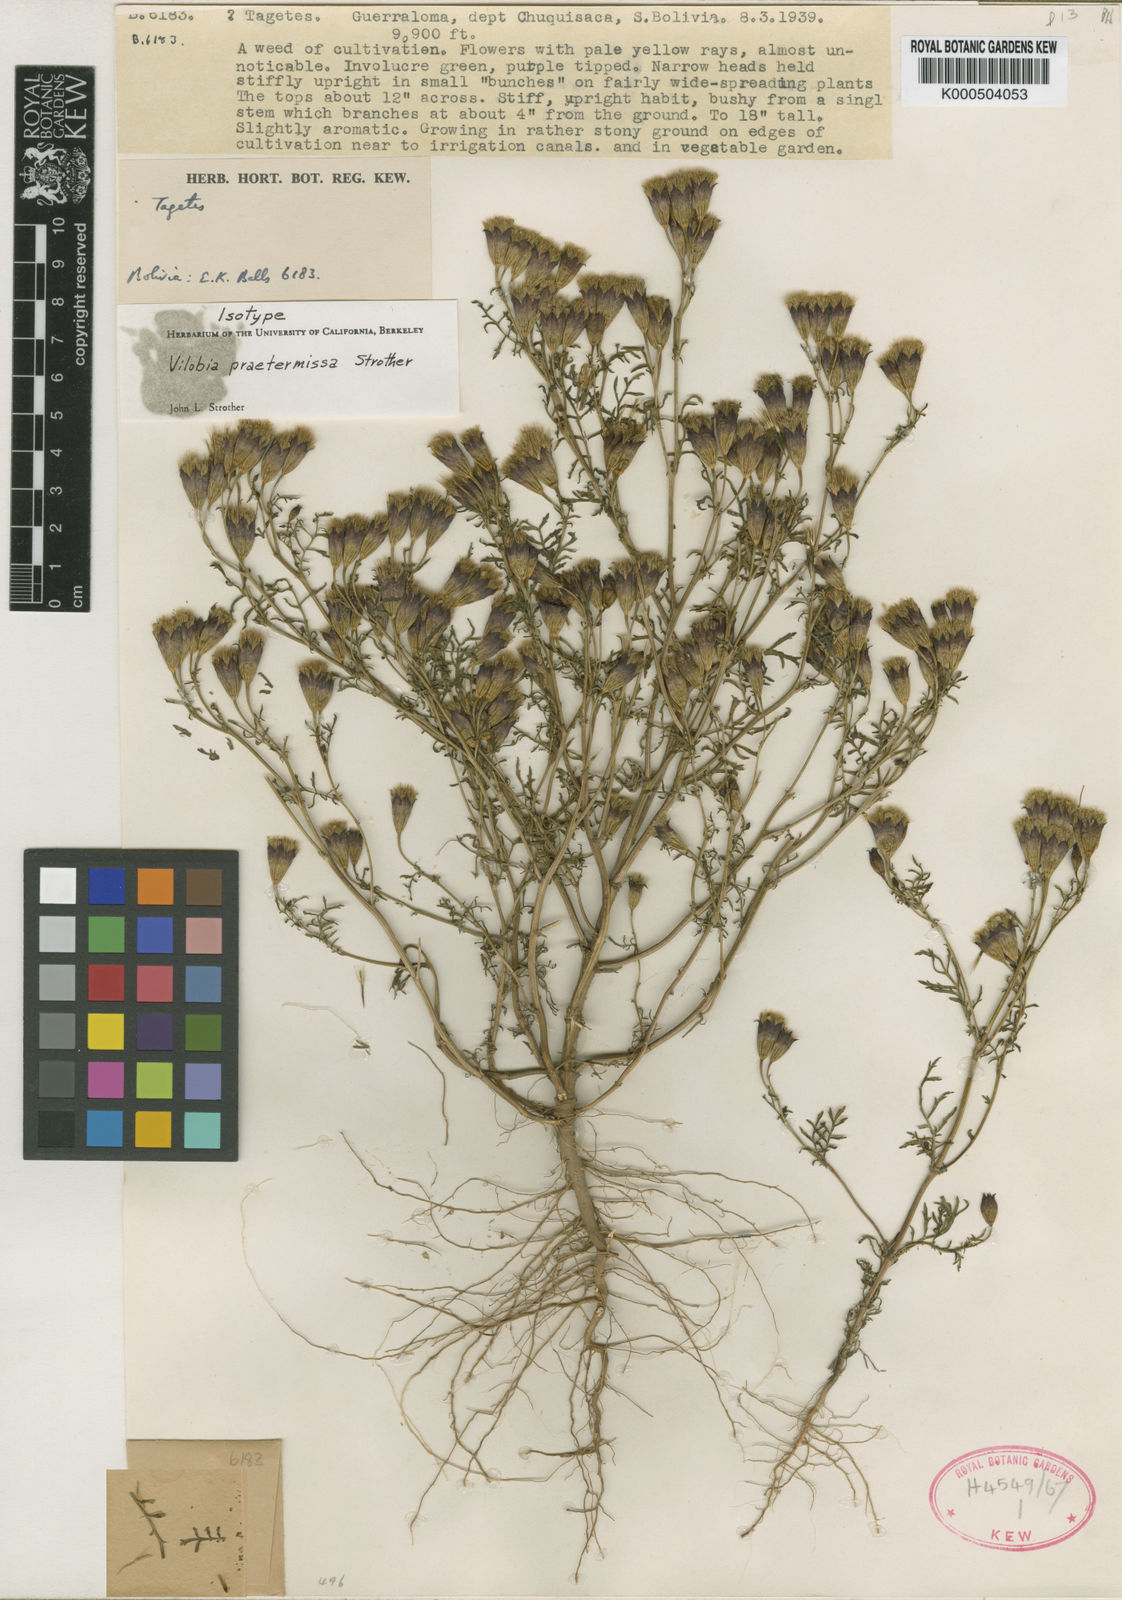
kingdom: Plantae
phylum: Tracheophyta
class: Magnoliopsida
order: Asterales
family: Asteraceae
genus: Tagetes
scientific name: Tagetes praetermissa
